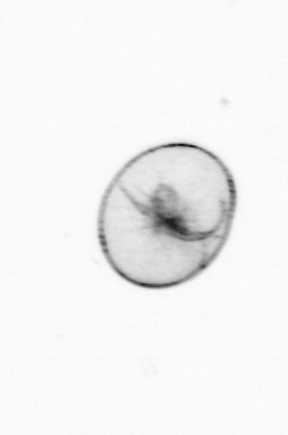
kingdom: Chromista
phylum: Myzozoa
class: Dinophyceae
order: Noctilucales
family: Noctilucaceae
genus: Noctiluca
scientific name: Noctiluca scintillans
